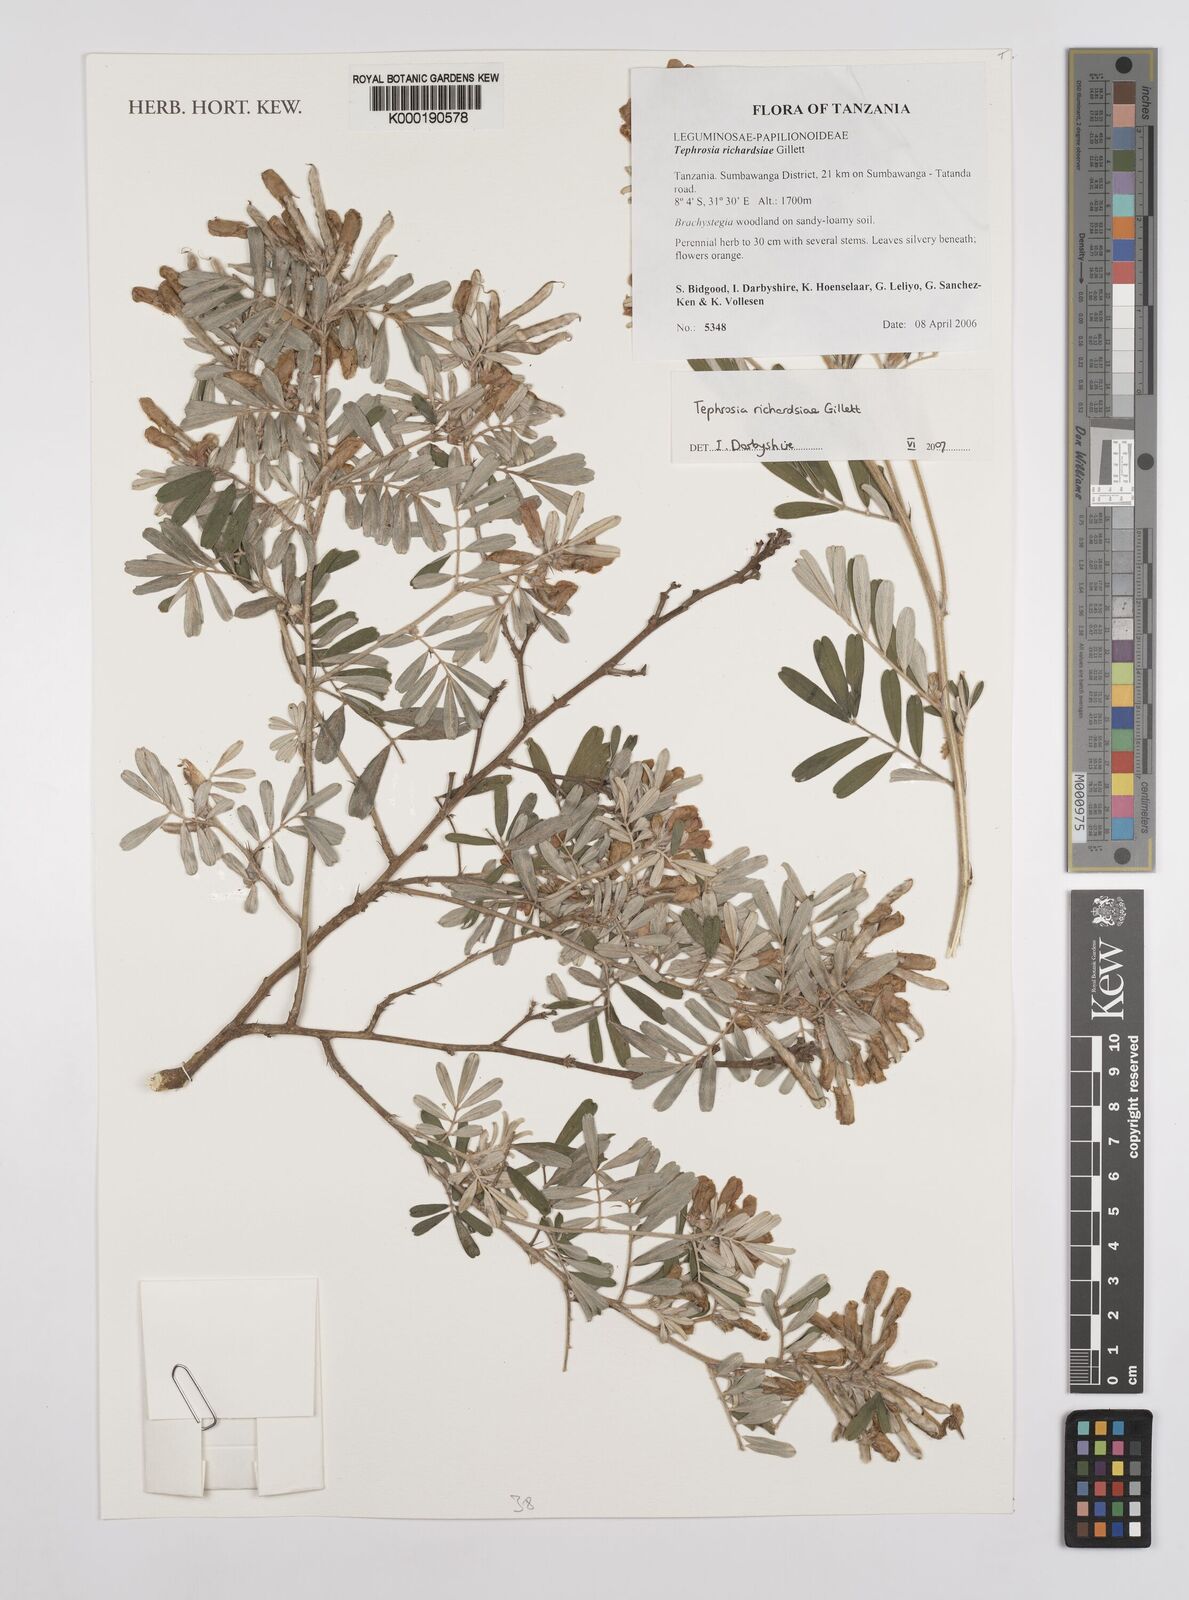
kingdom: Plantae
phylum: Tracheophyta
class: Magnoliopsida
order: Fabales
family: Fabaceae
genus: Tephrosia
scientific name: Tephrosia richardsiae
